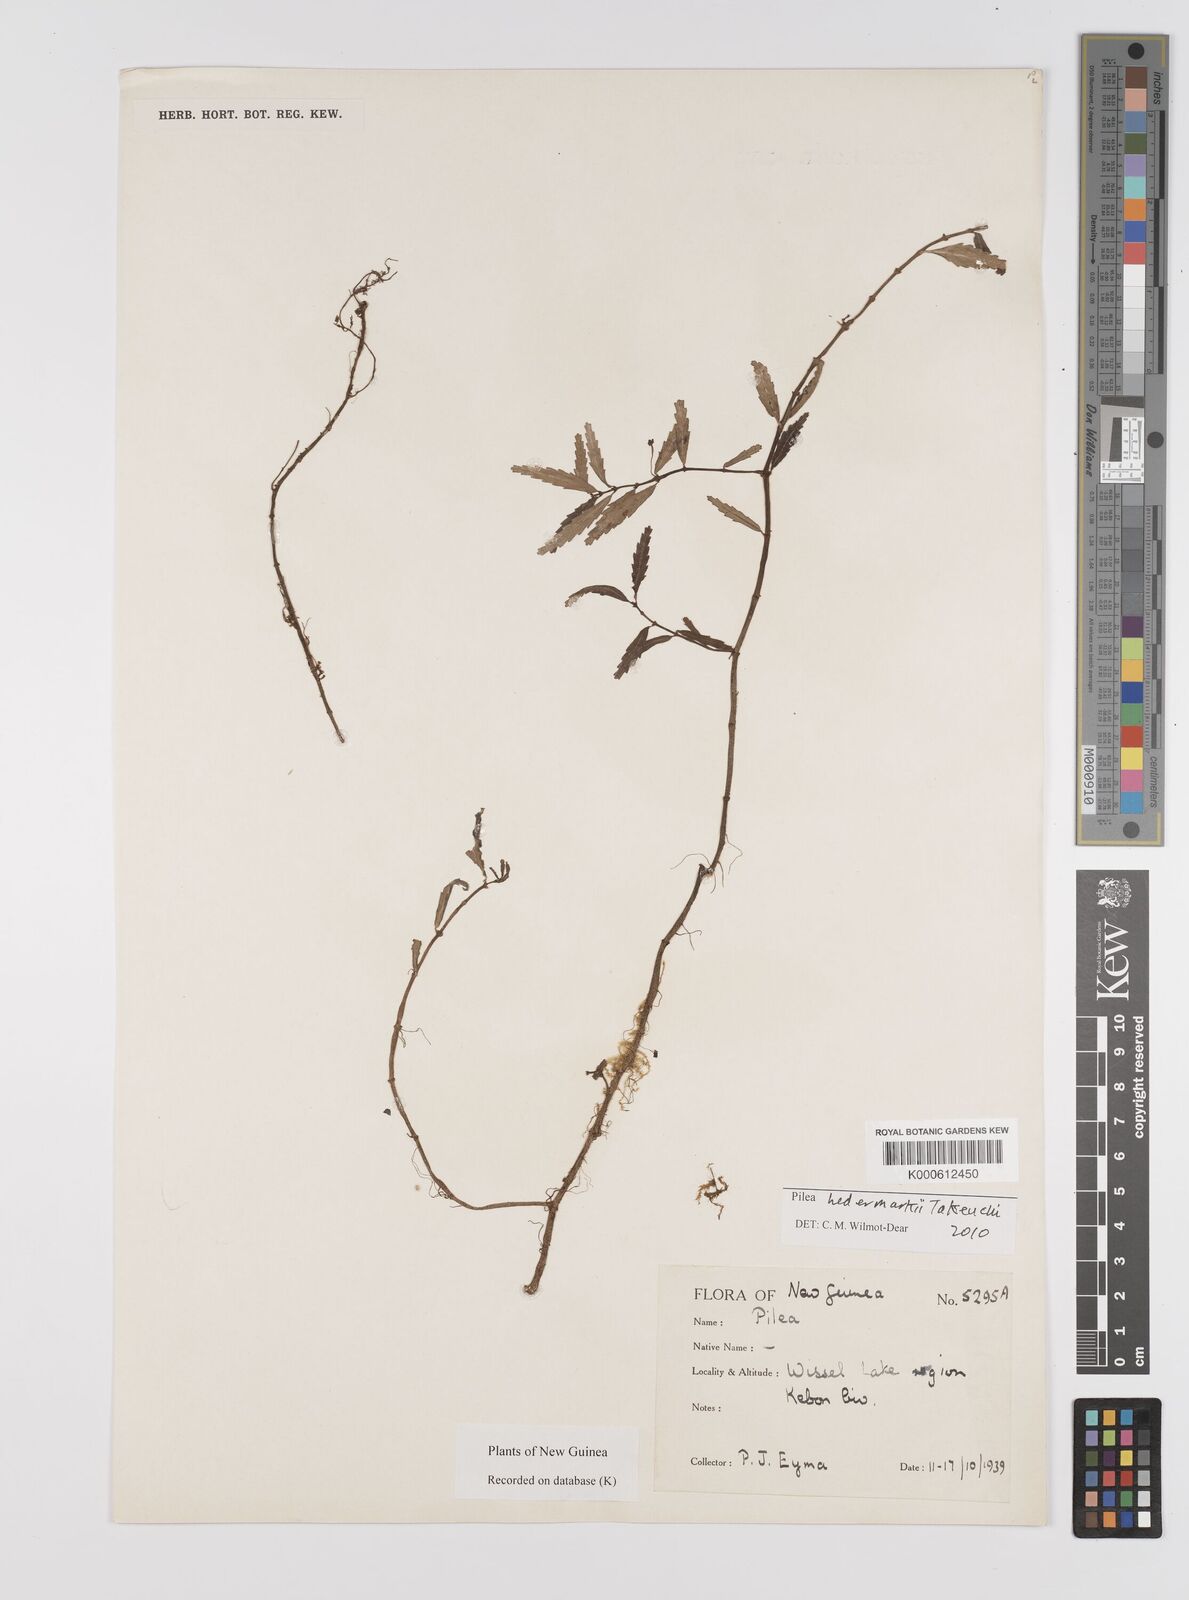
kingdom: Plantae
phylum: Tracheophyta
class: Magnoliopsida
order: Rosales
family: Urticaceae
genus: Pilea
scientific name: Pilea hedemarkii
